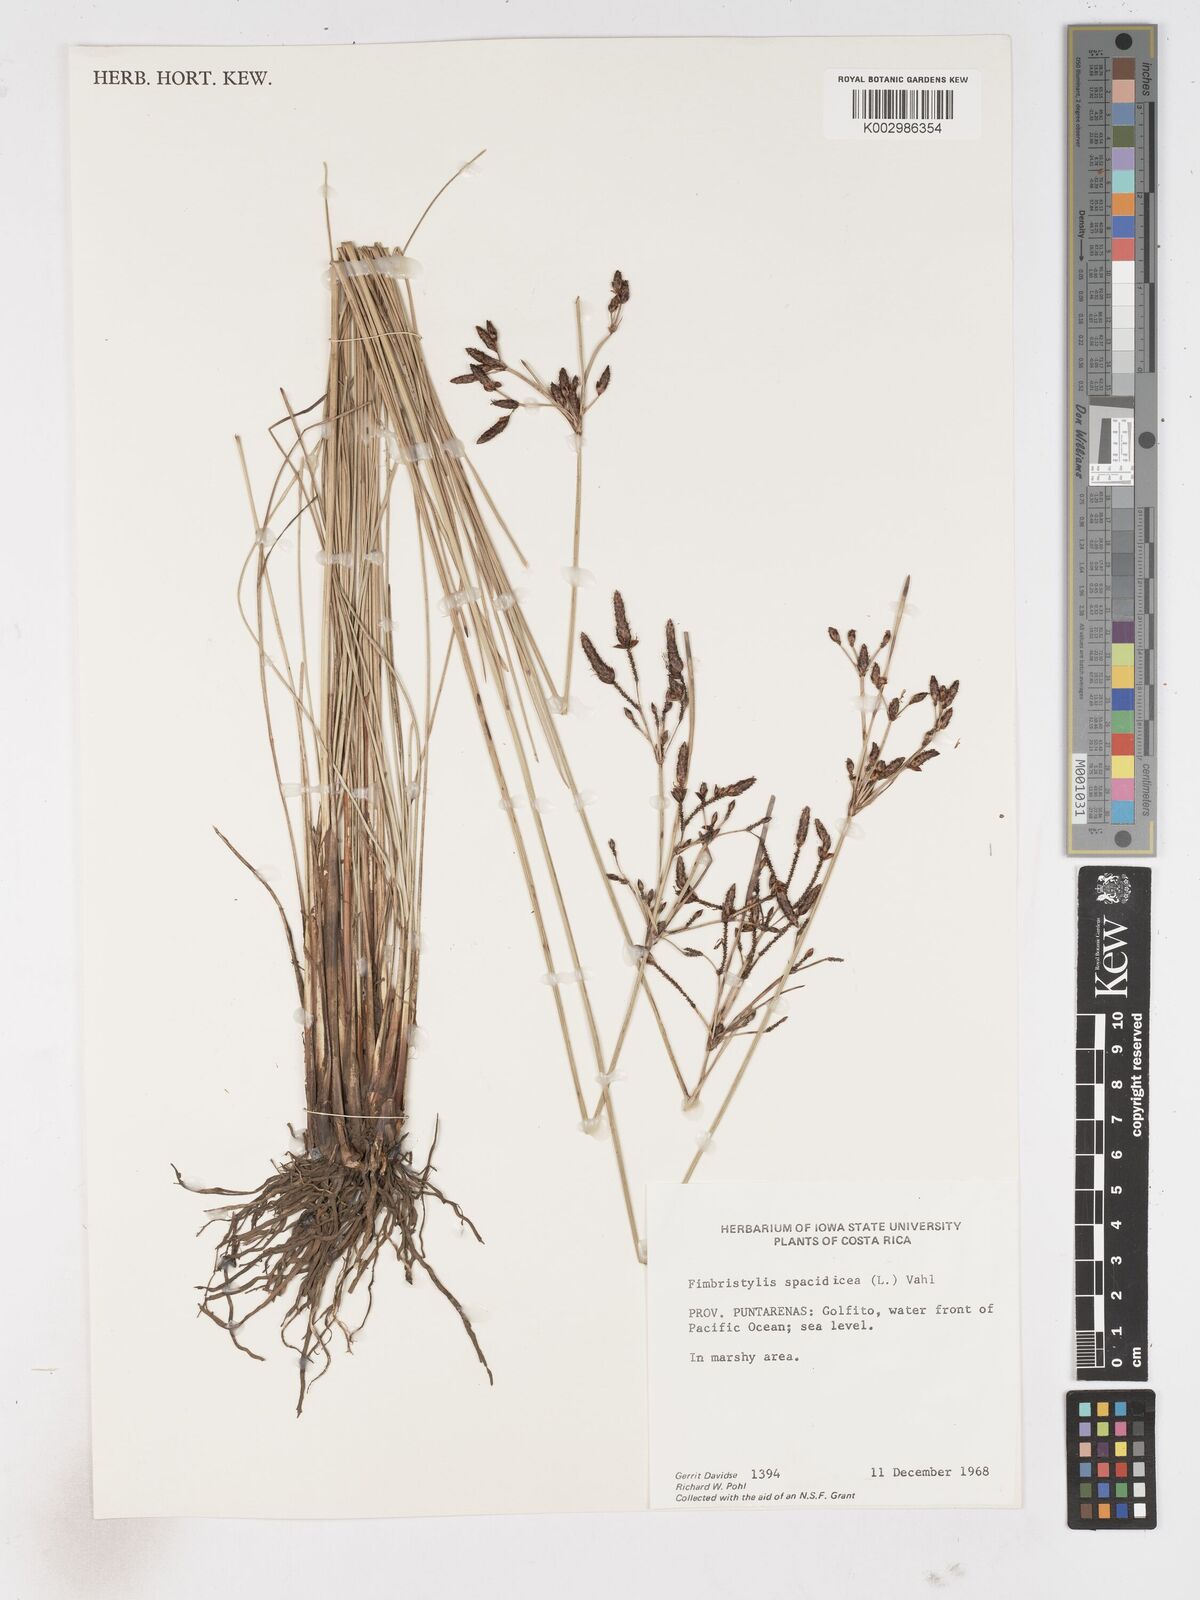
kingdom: Plantae
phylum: Tracheophyta
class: Liliopsida
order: Poales
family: Cyperaceae
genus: Fimbristylis
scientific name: Fimbristylis
